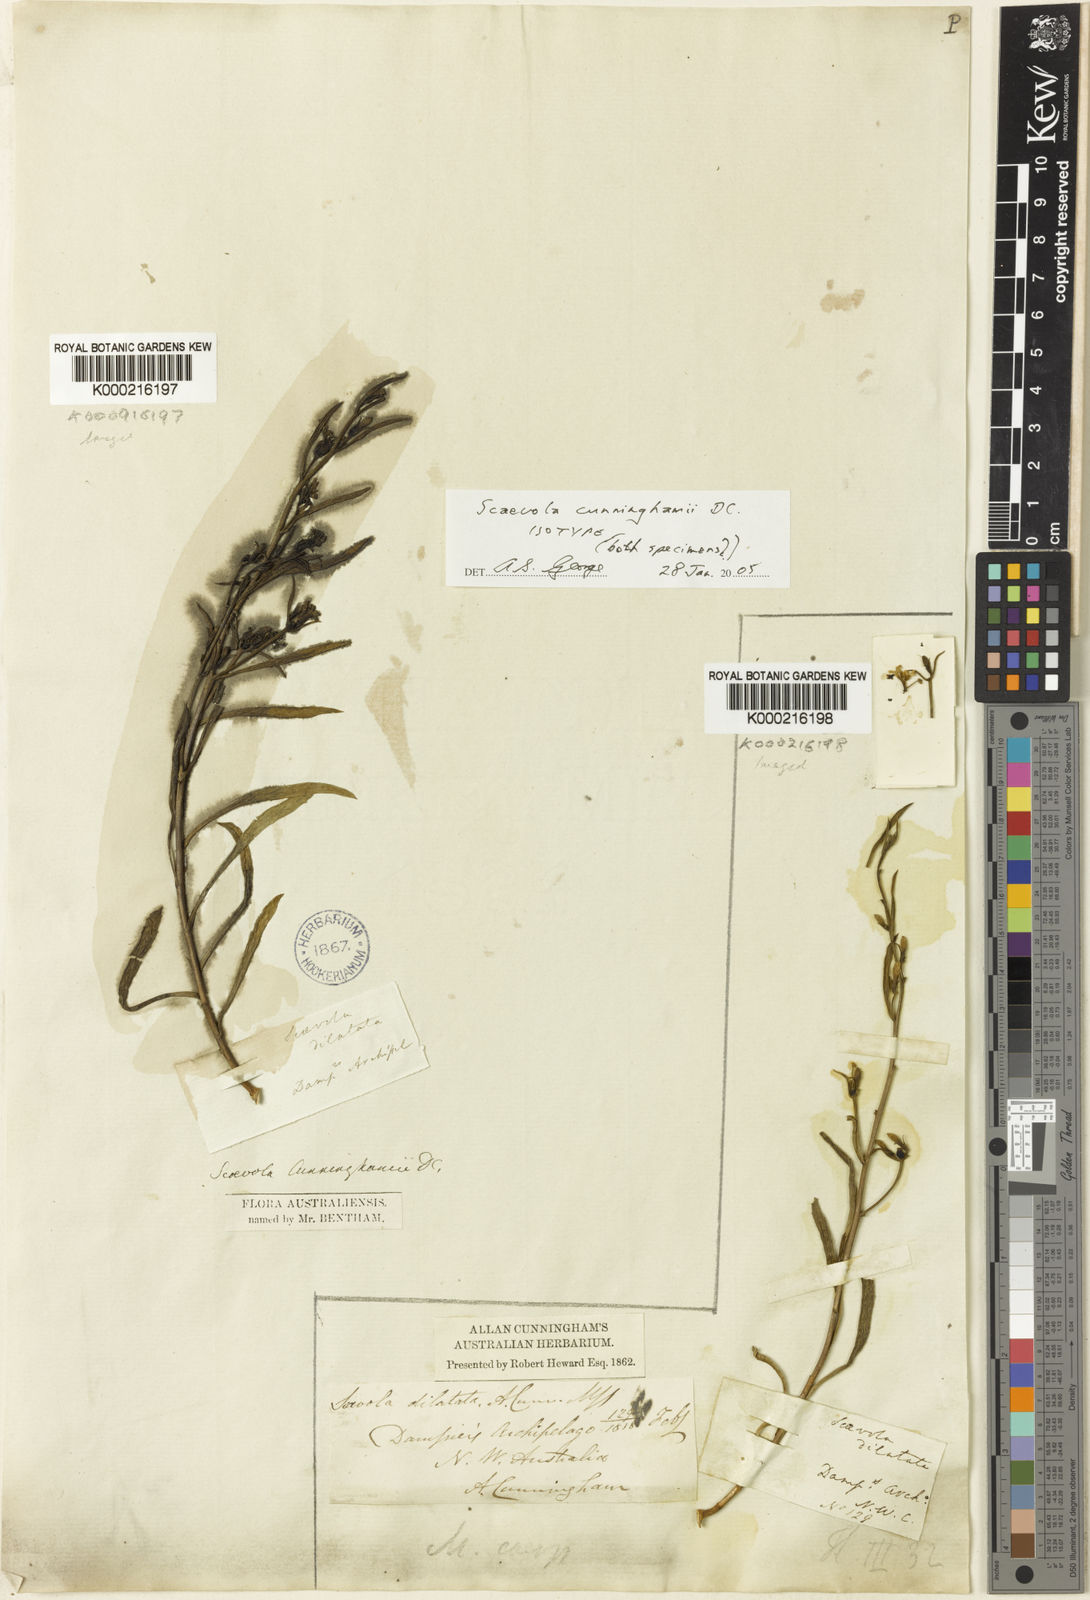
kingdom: Plantae
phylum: Tracheophyta
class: Magnoliopsida
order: Asterales
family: Goodeniaceae
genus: Scaevola
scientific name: Scaevola cunninghamii
